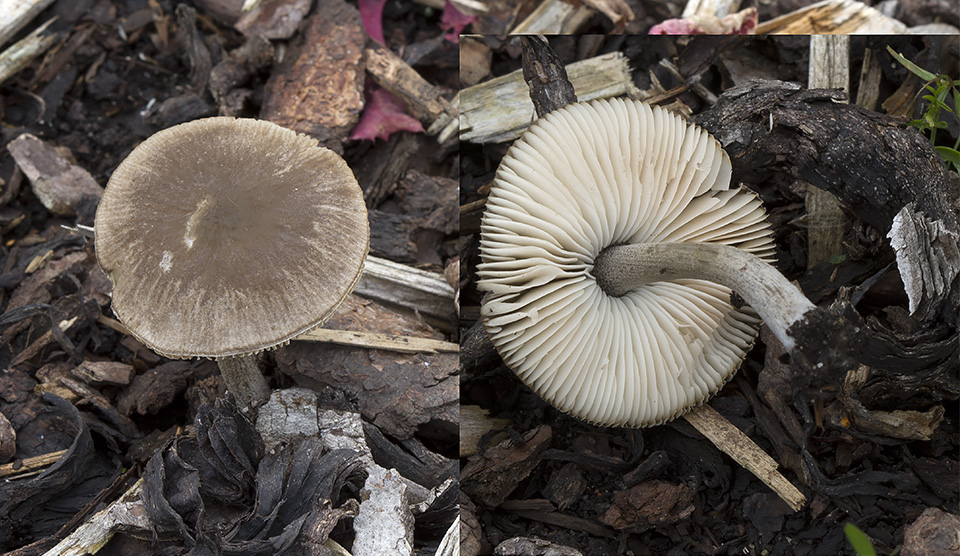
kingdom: Fungi
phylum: Basidiomycota
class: Agaricomycetes
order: Agaricales
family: Pluteaceae
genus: Pluteus
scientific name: Pluteus thomsonii
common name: Veined shield
